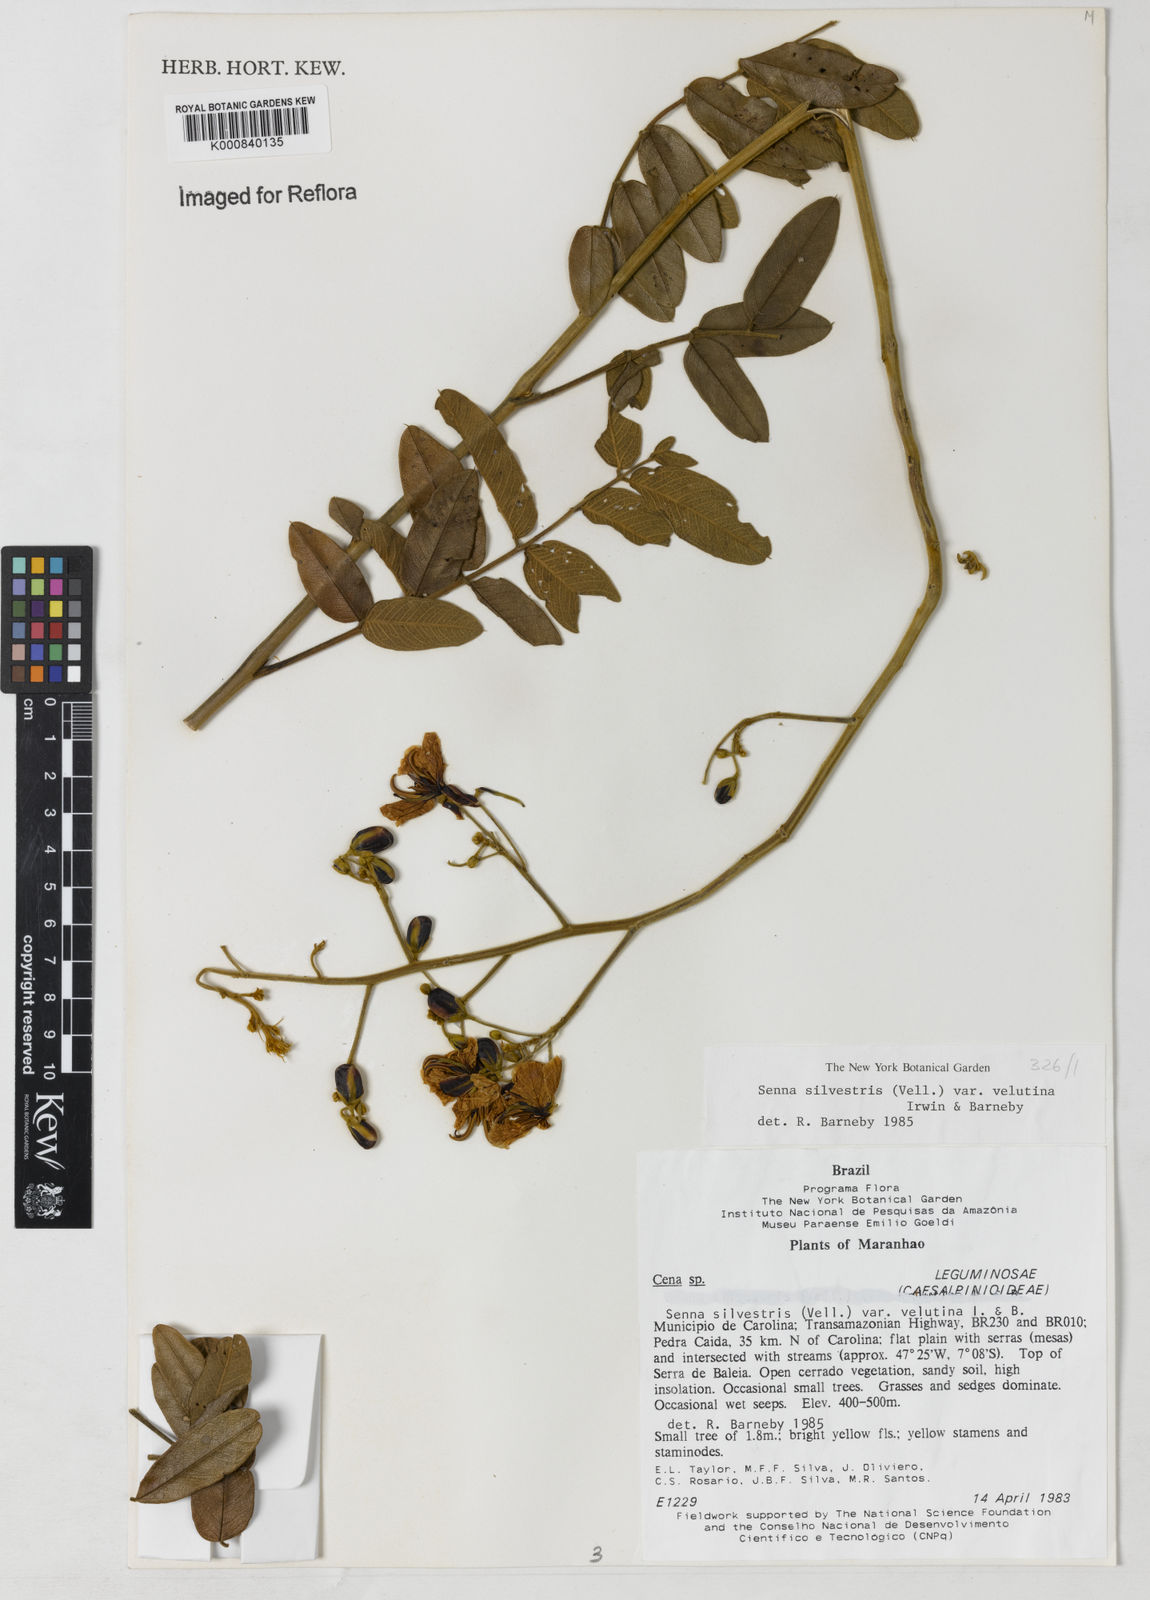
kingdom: Plantae
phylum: Tracheophyta
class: Magnoliopsida
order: Fabales
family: Fabaceae
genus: Senna
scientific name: Senna silvestris
